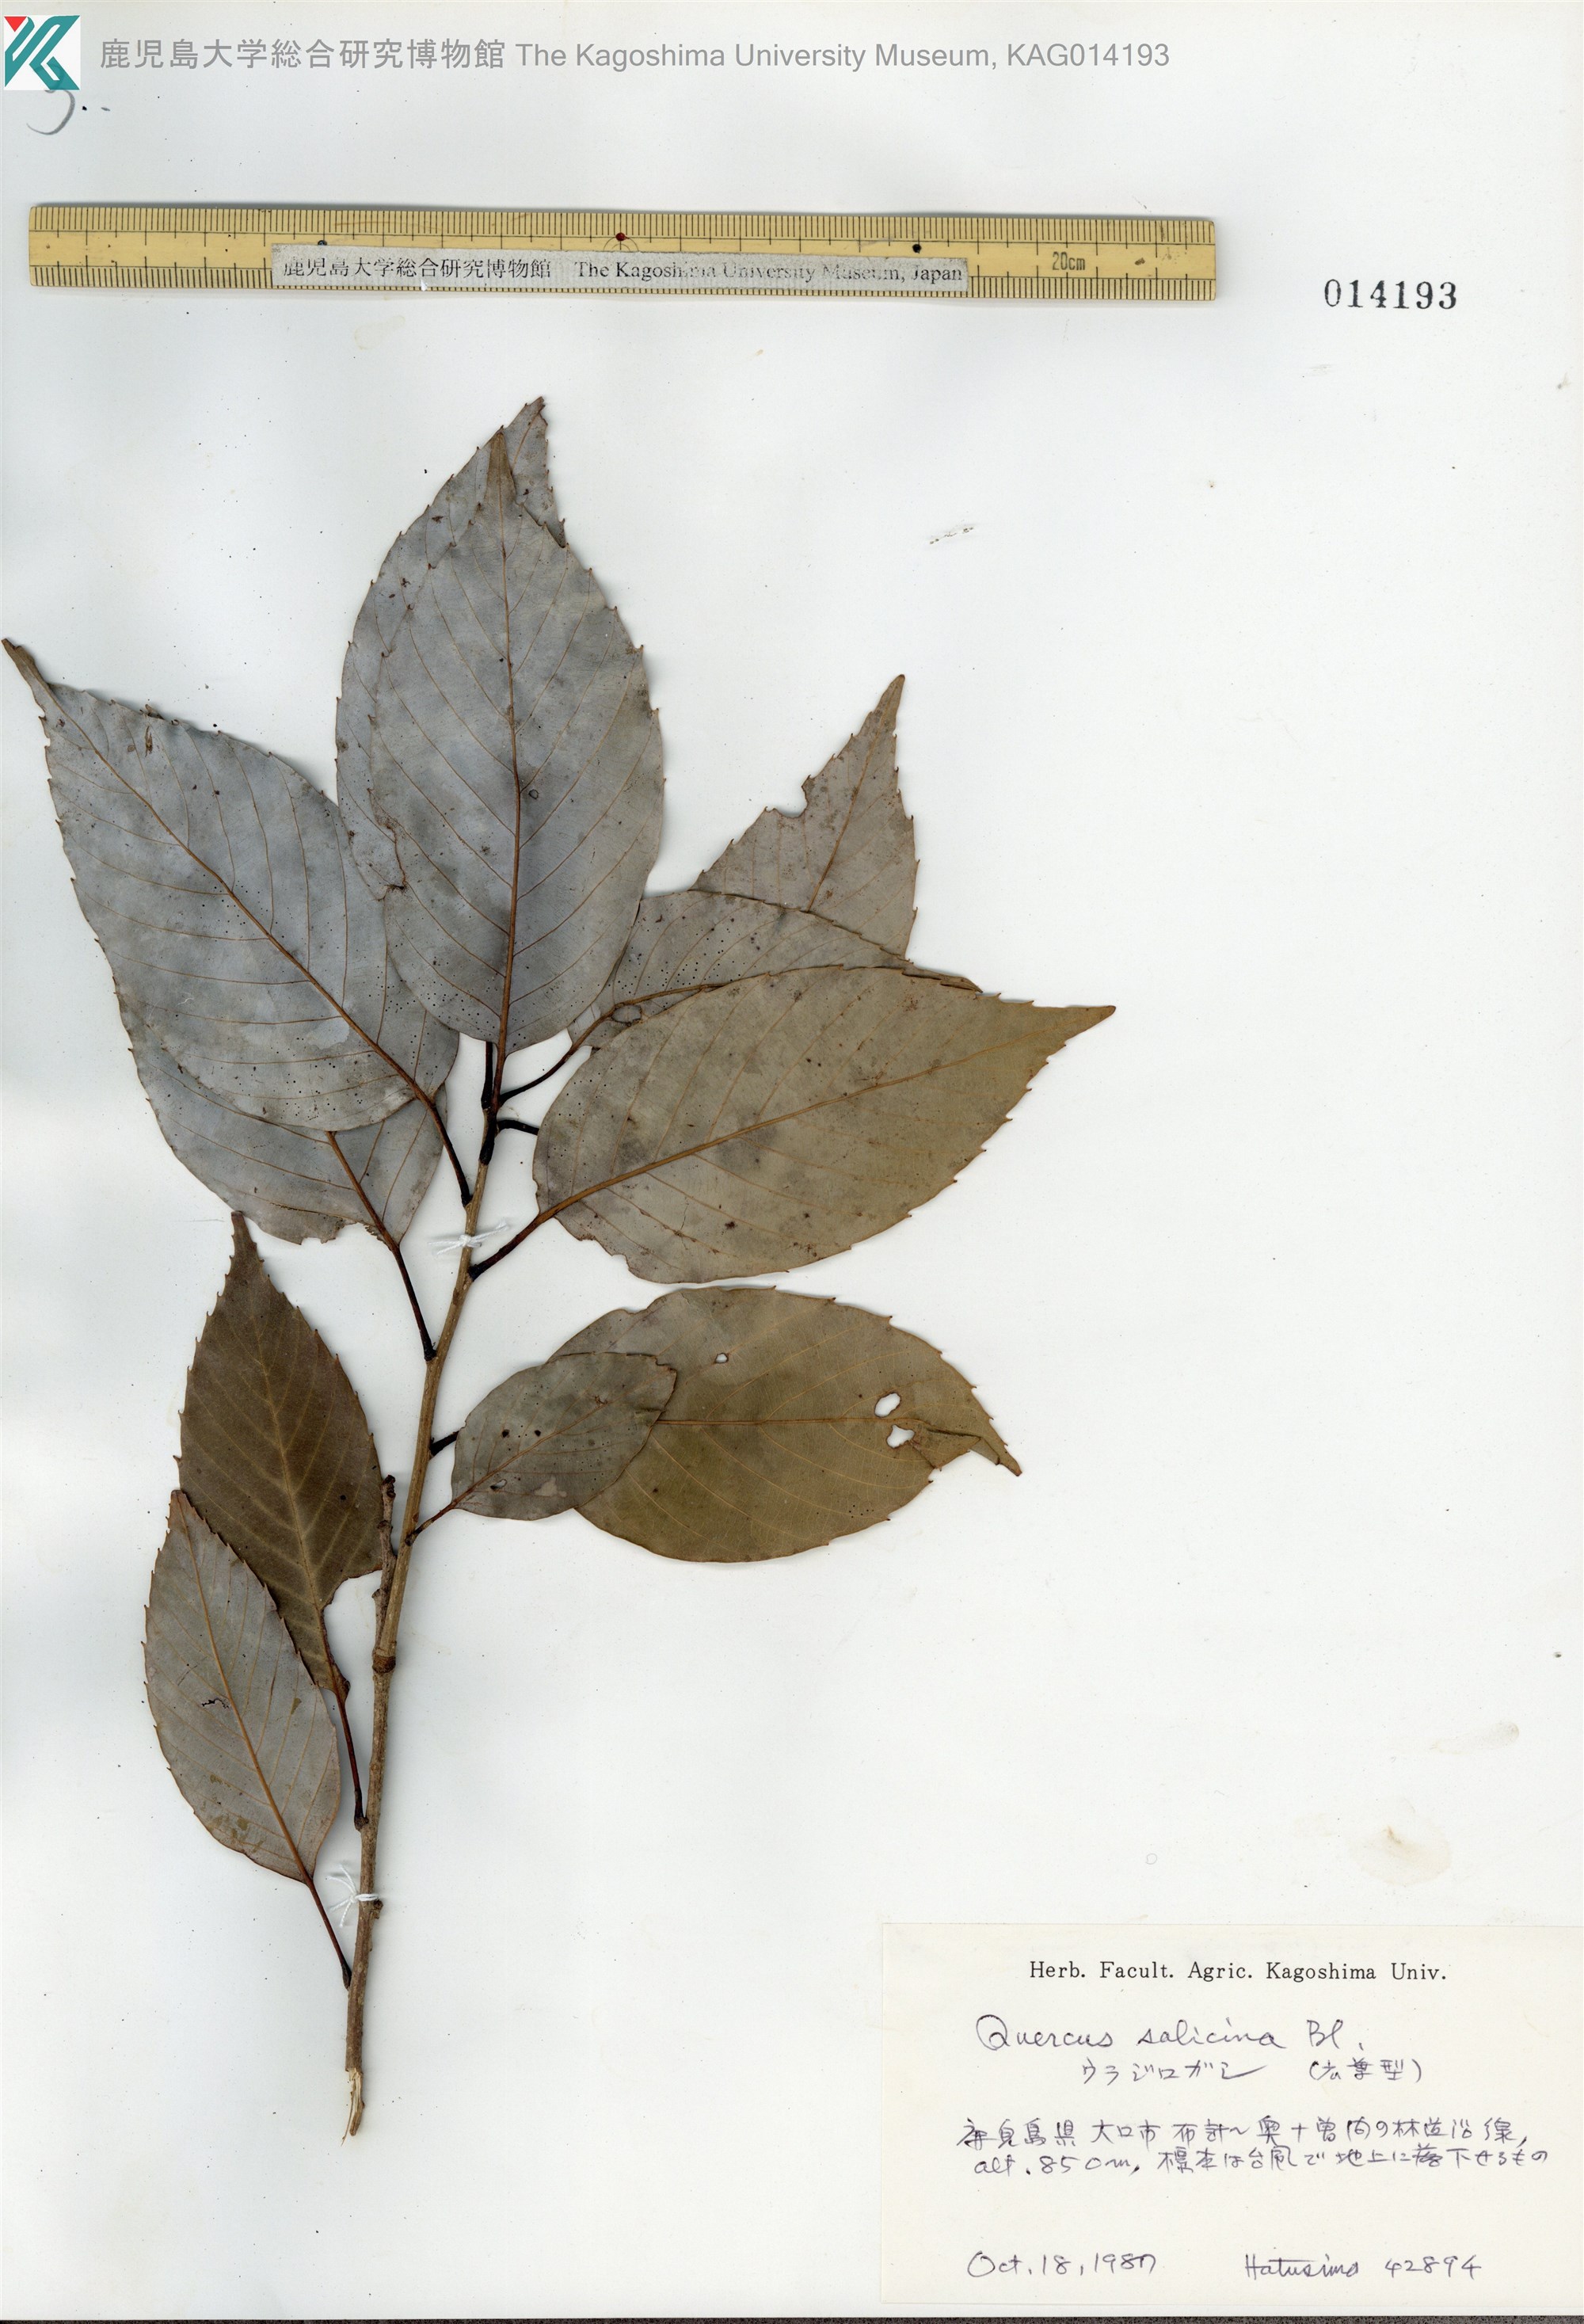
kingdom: Plantae
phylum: Tracheophyta
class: Magnoliopsida
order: Fagales
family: Fagaceae
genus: Quercus
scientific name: Quercus salicina
